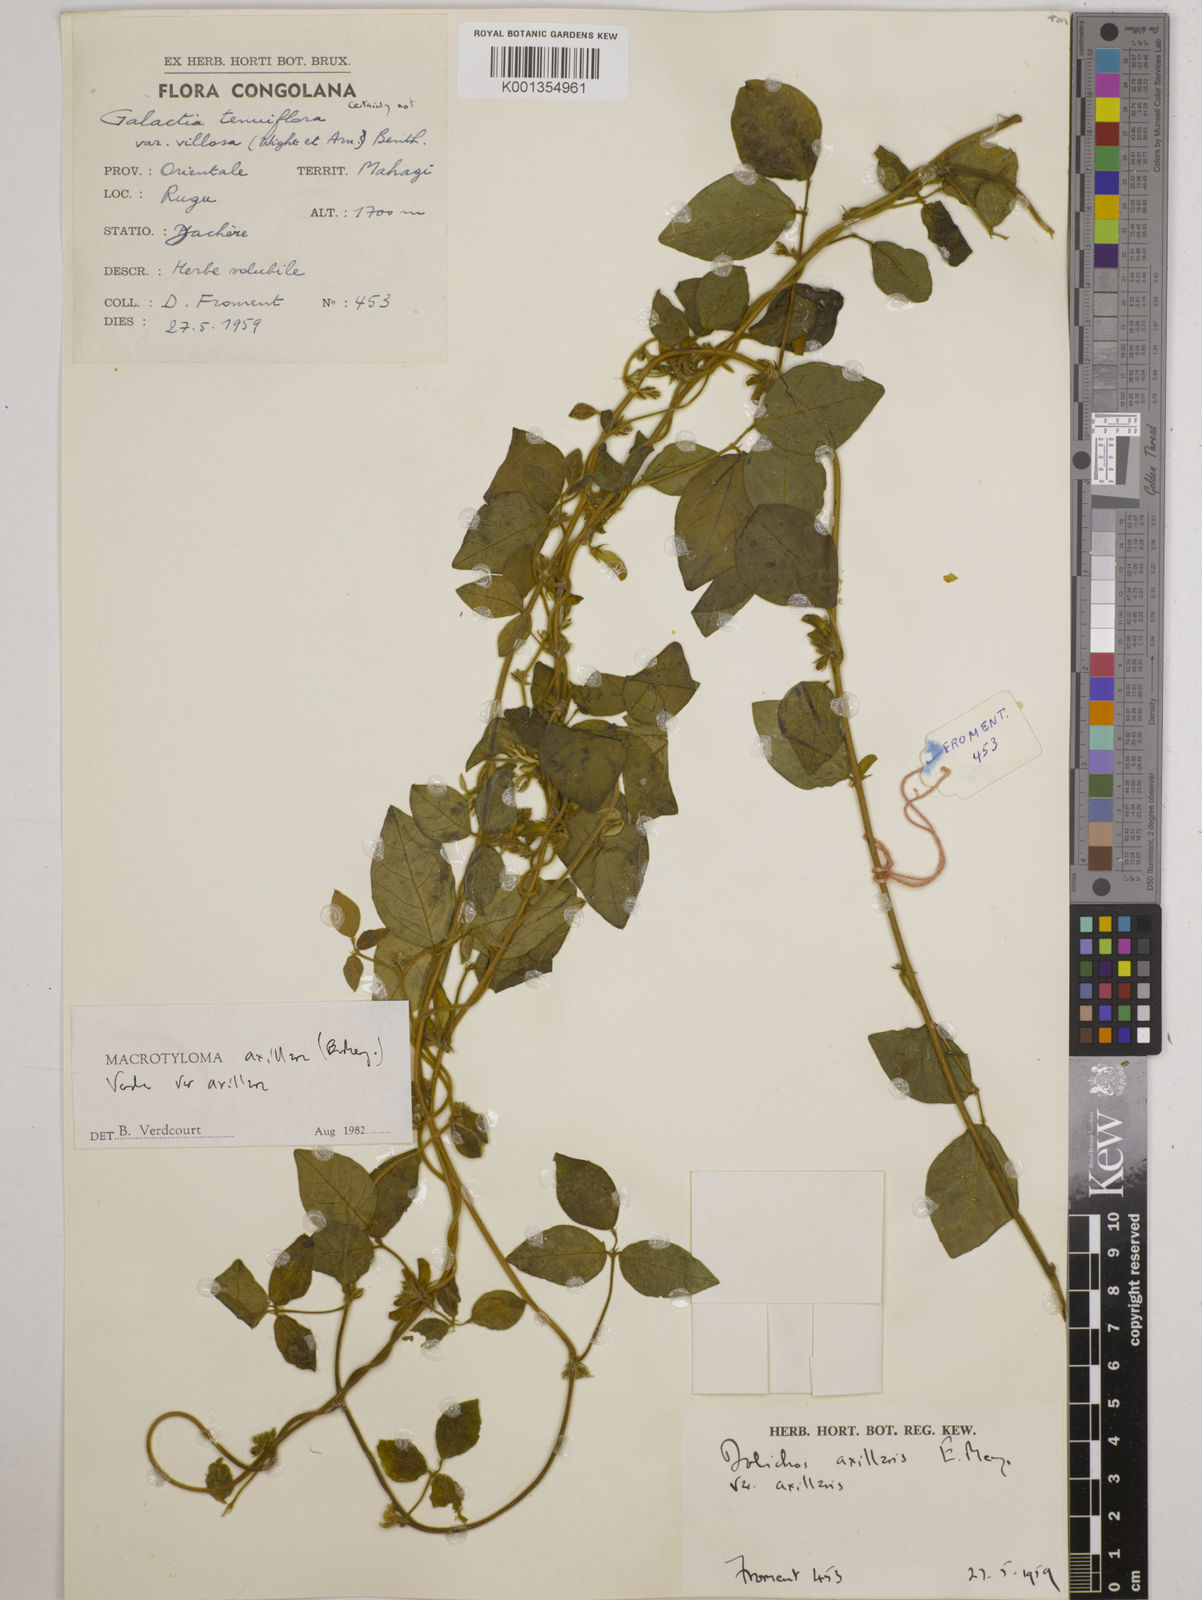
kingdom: Plantae
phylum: Tracheophyta
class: Magnoliopsida
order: Fabales
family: Fabaceae
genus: Macrotyloma
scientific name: Macrotyloma axillare
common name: Perennial horsegram
